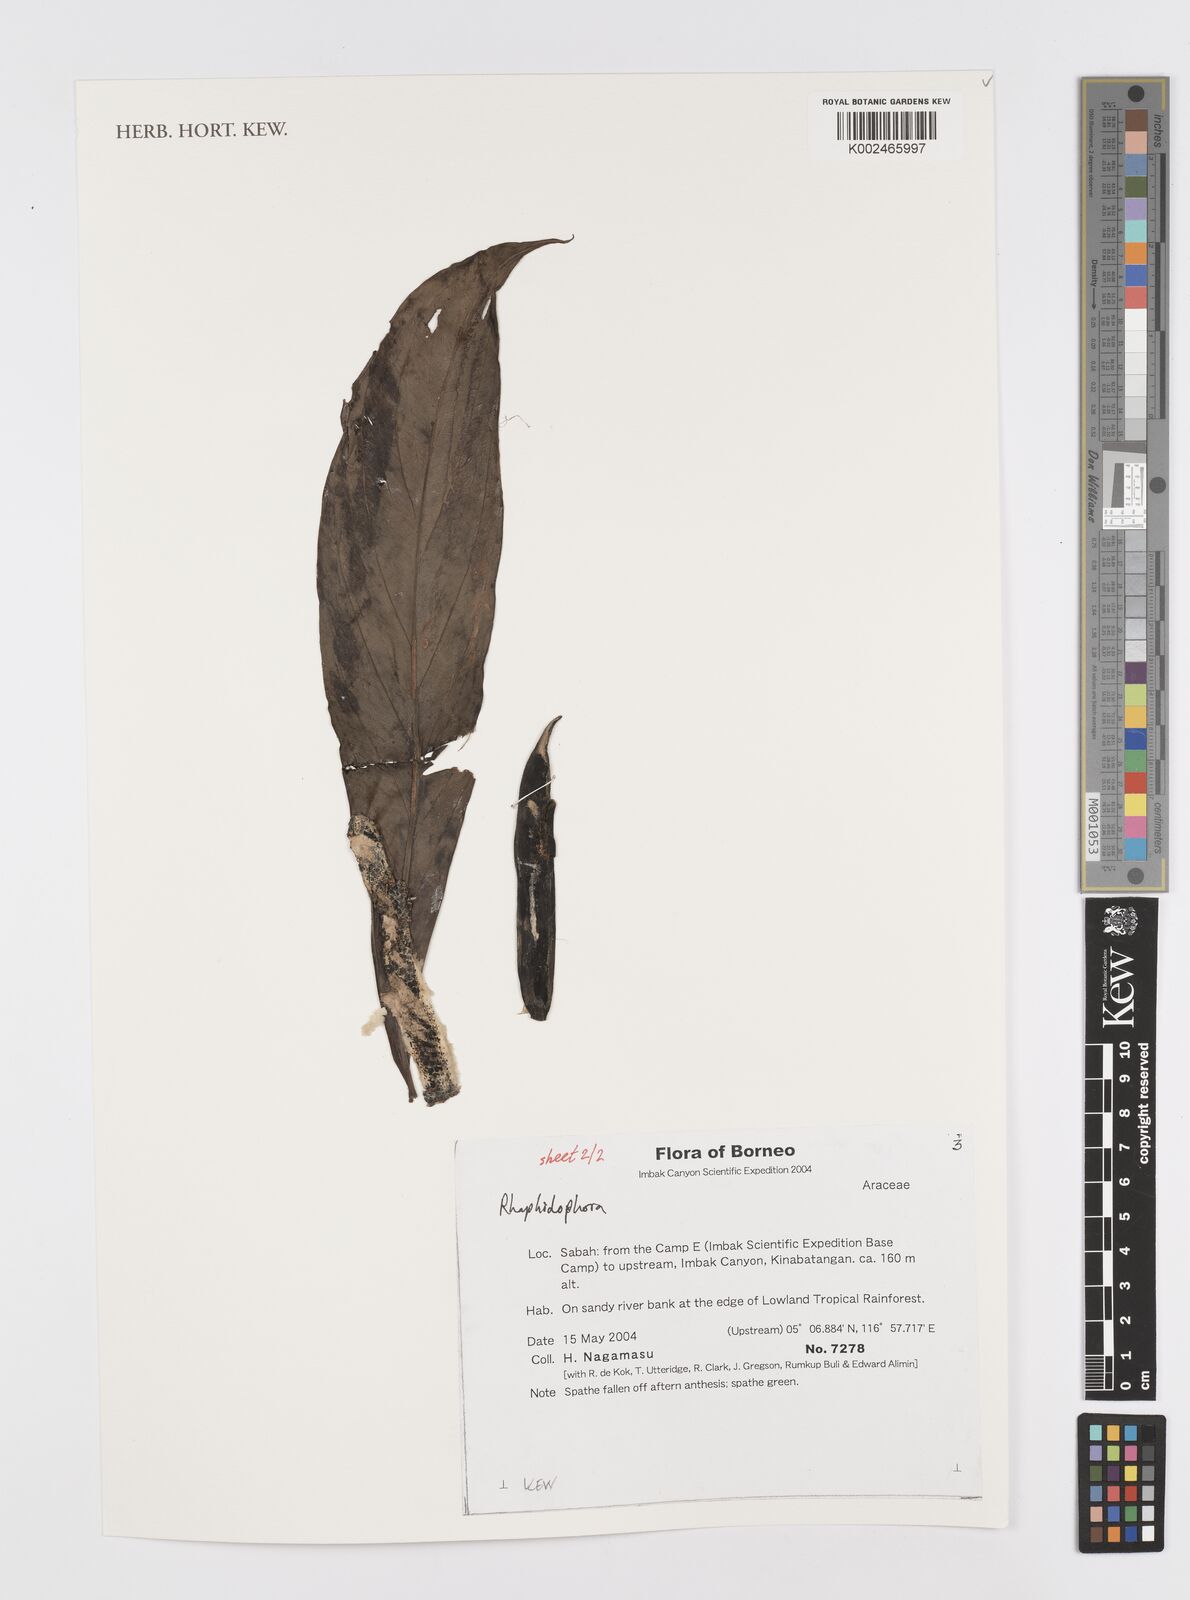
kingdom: Plantae
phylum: Tracheophyta
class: Liliopsida
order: Alismatales
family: Araceae
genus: Rhaphidophora
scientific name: Rhaphidophora
